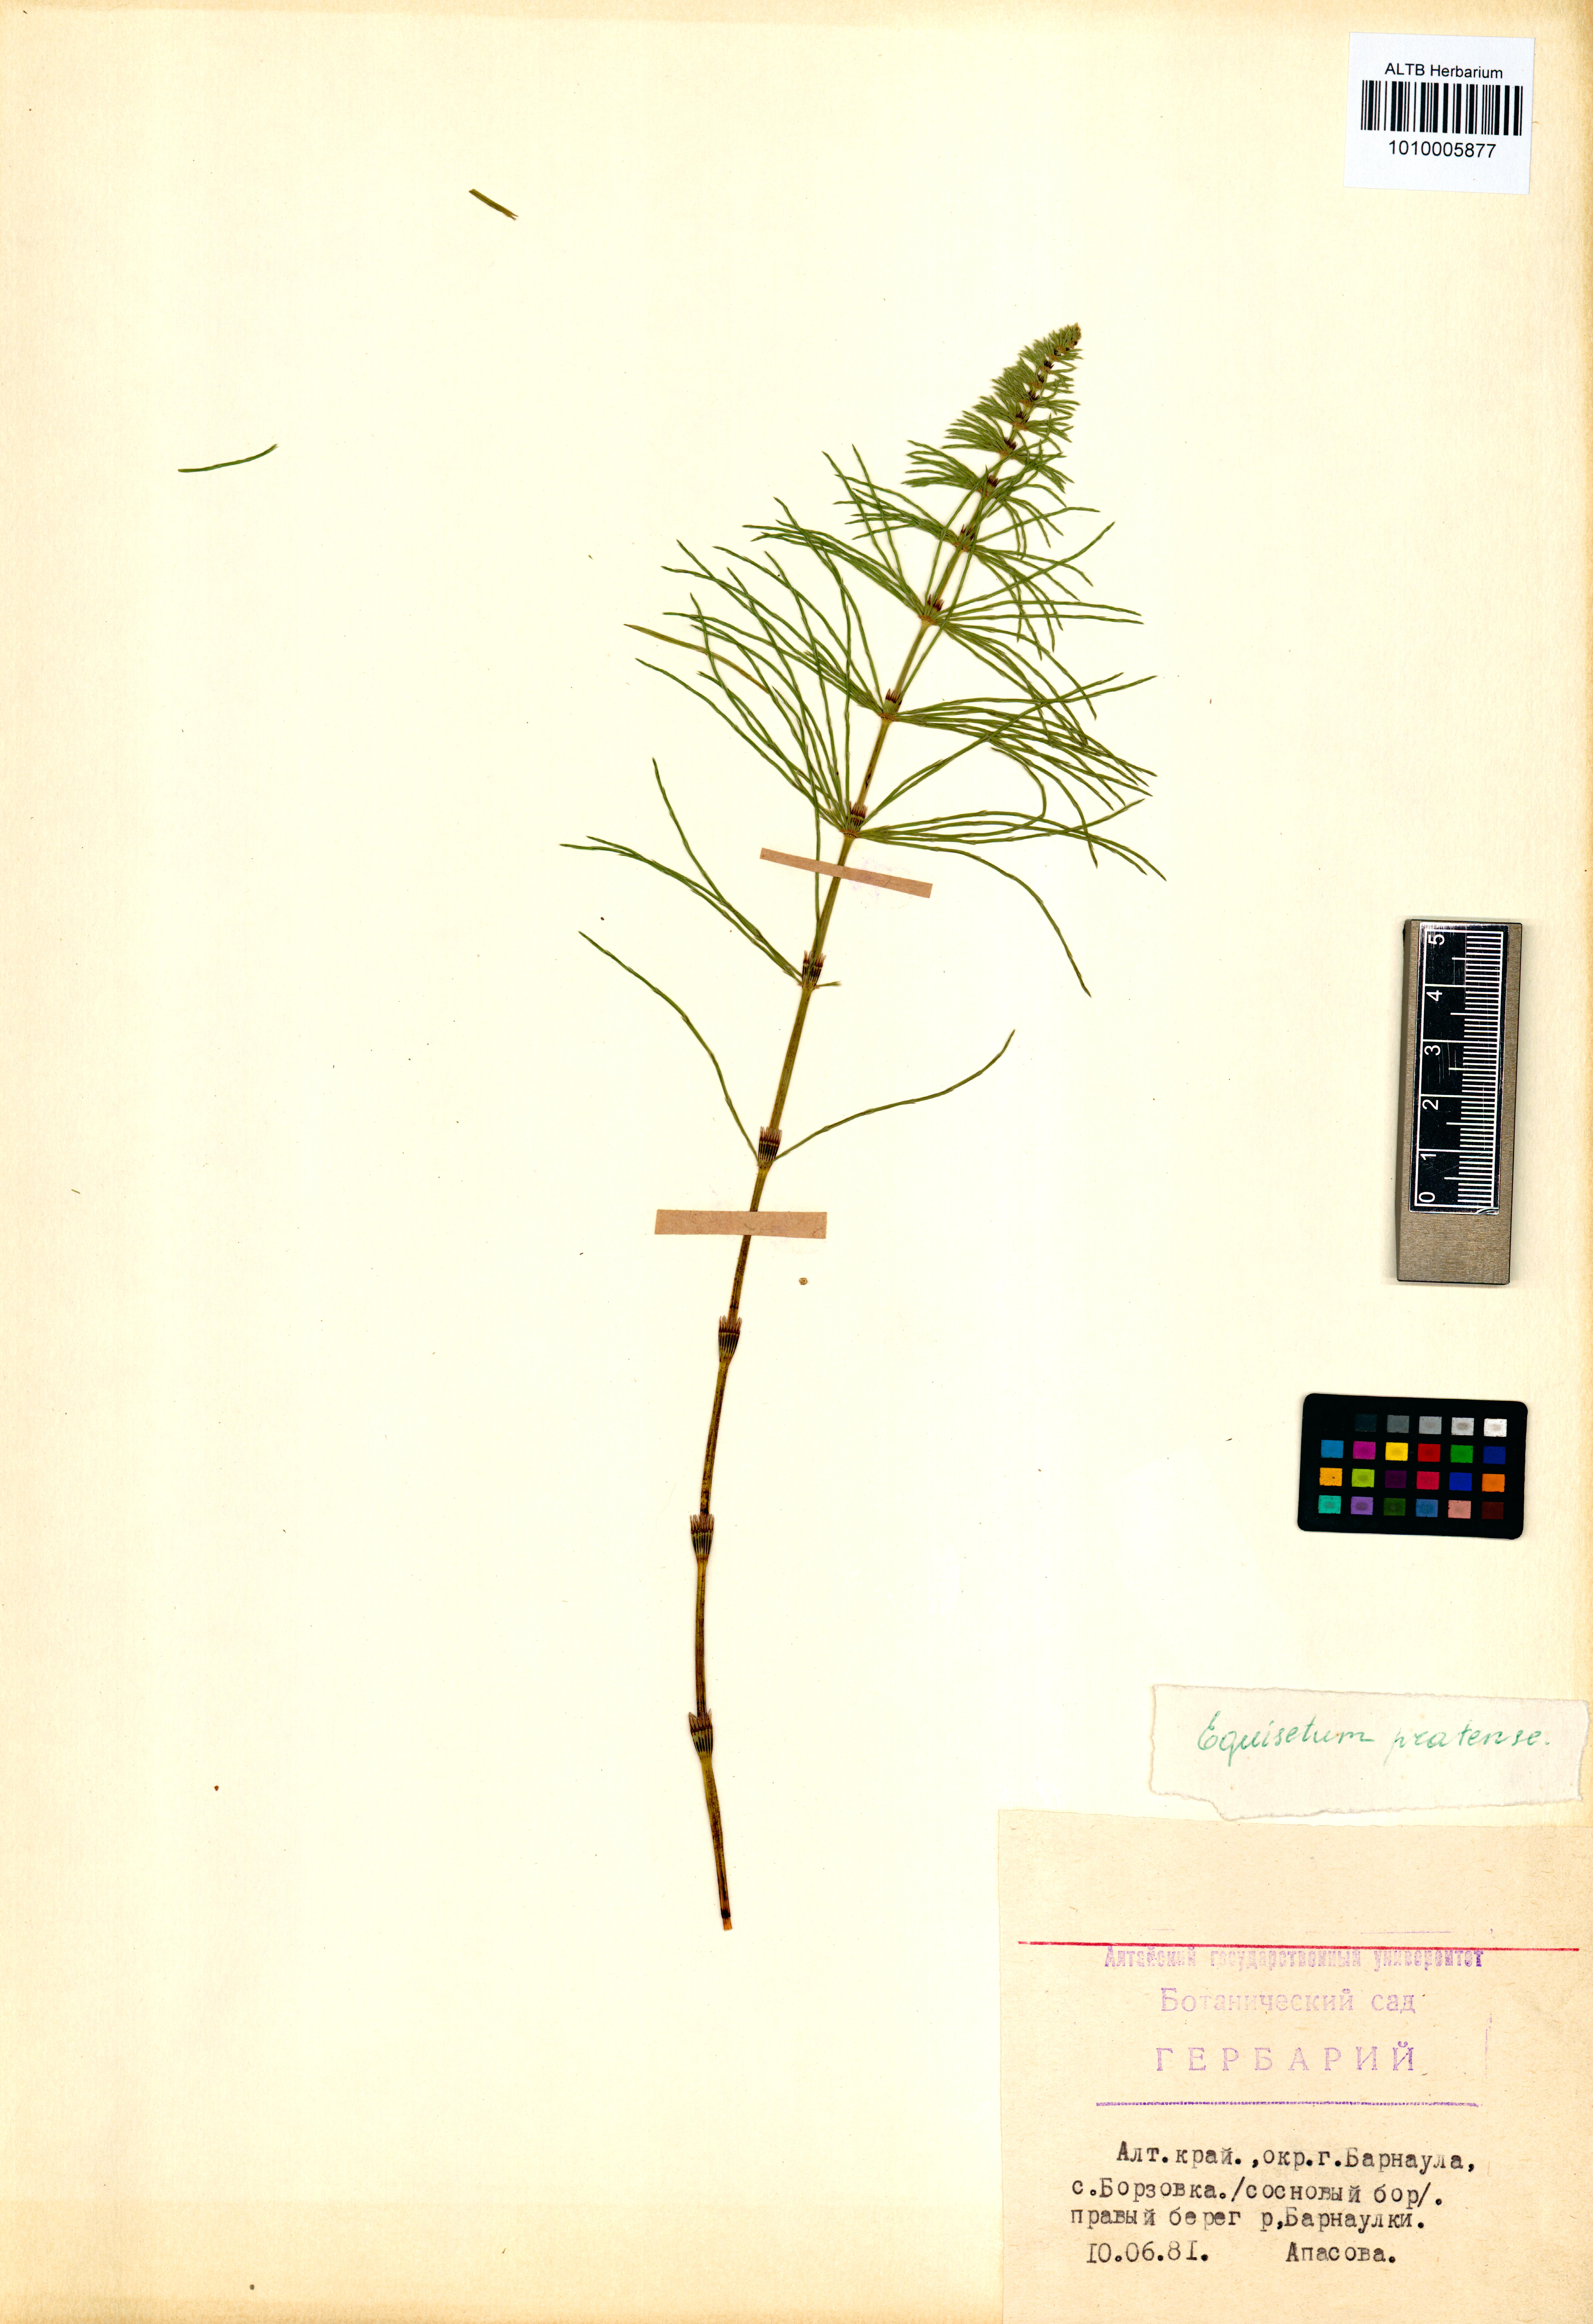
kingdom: Plantae
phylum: Tracheophyta
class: Polypodiopsida
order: Equisetales
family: Equisetaceae
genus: Equisetum
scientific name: Equisetum pratense
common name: Meadow horsetail
